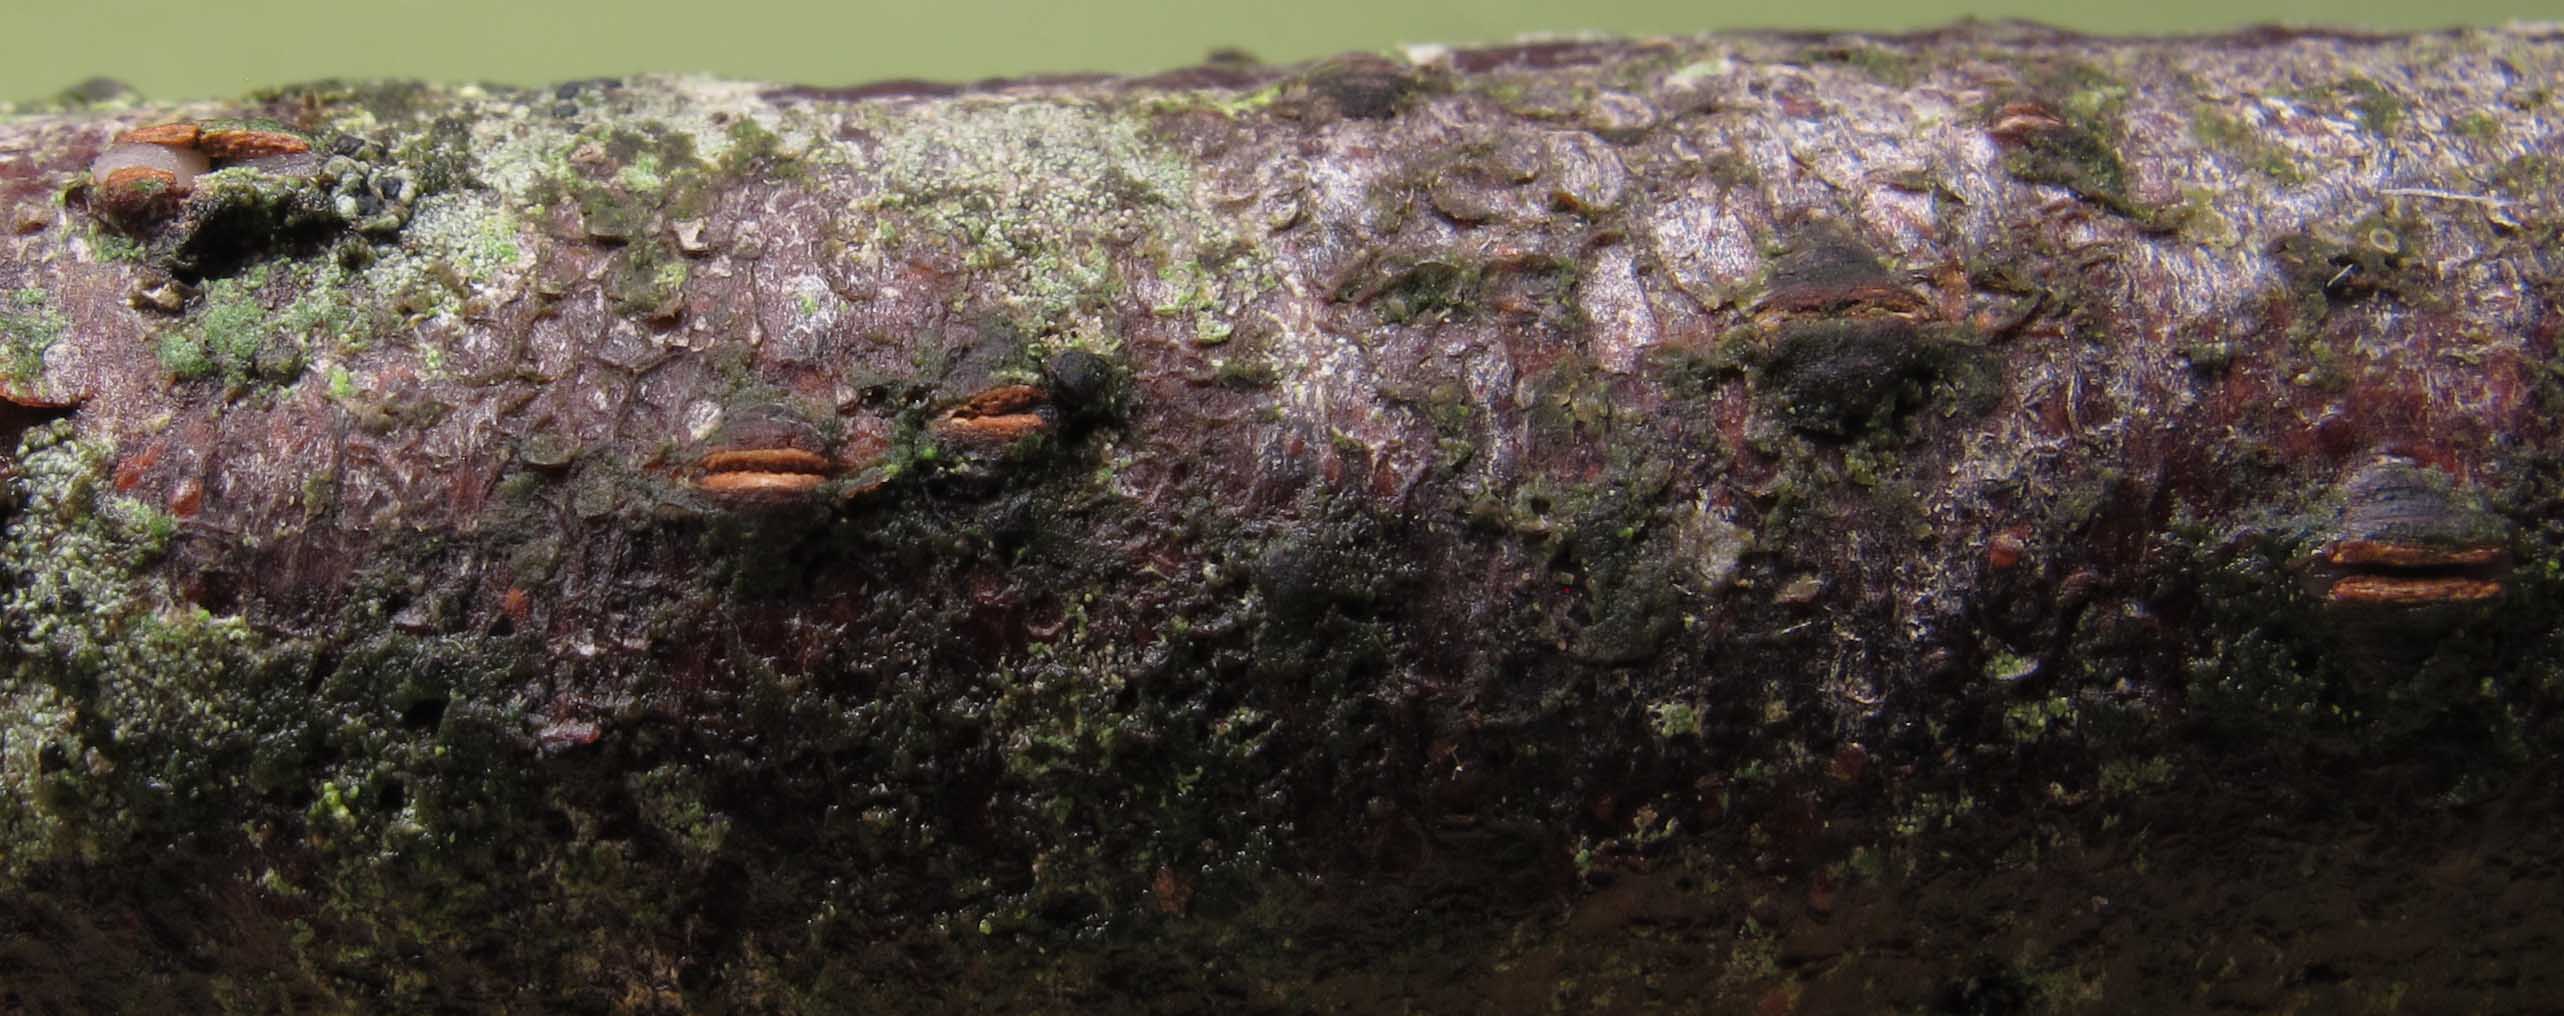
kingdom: Fungi
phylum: Basidiomycota
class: Pucciniomycetes
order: Platygloeales
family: Platygloeaceae
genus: Platygloea
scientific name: Platygloea disciformis
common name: linde-slimklat
